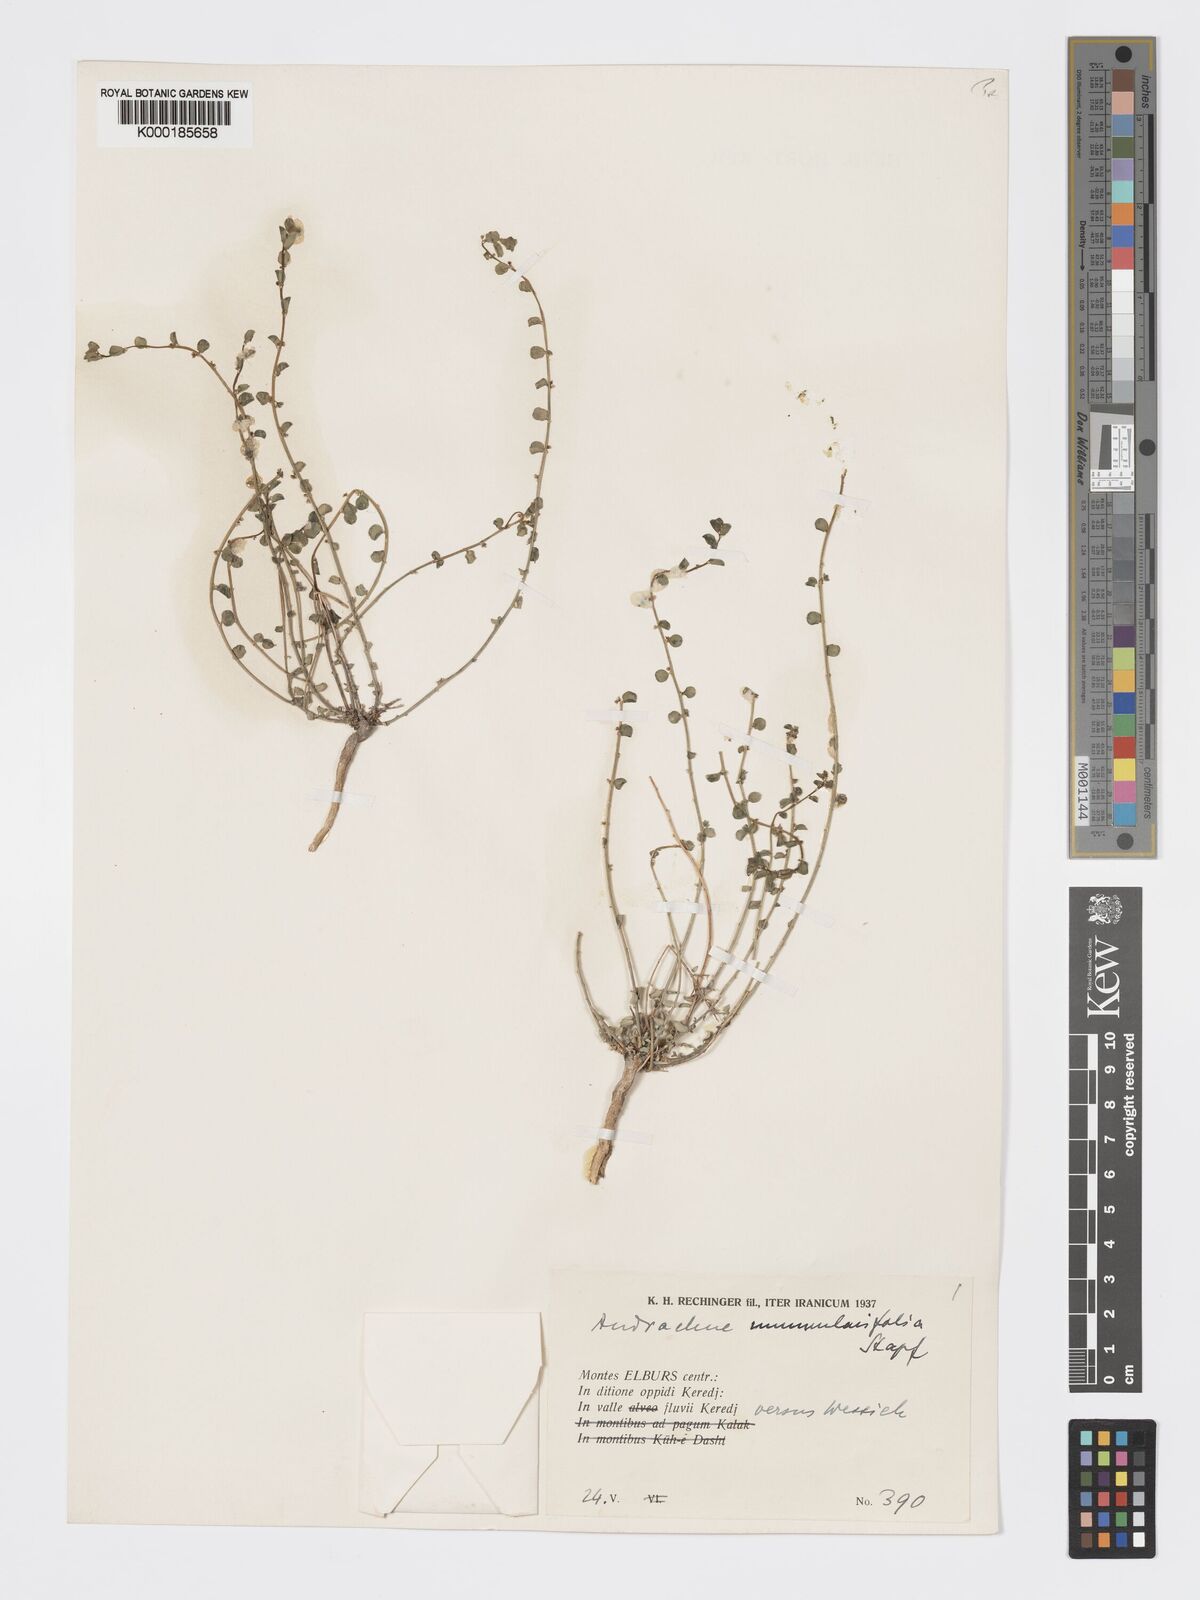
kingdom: Plantae
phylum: Tracheophyta
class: Magnoliopsida
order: Malpighiales
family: Phyllanthaceae
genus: Andrachne
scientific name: Andrachne telephioides
